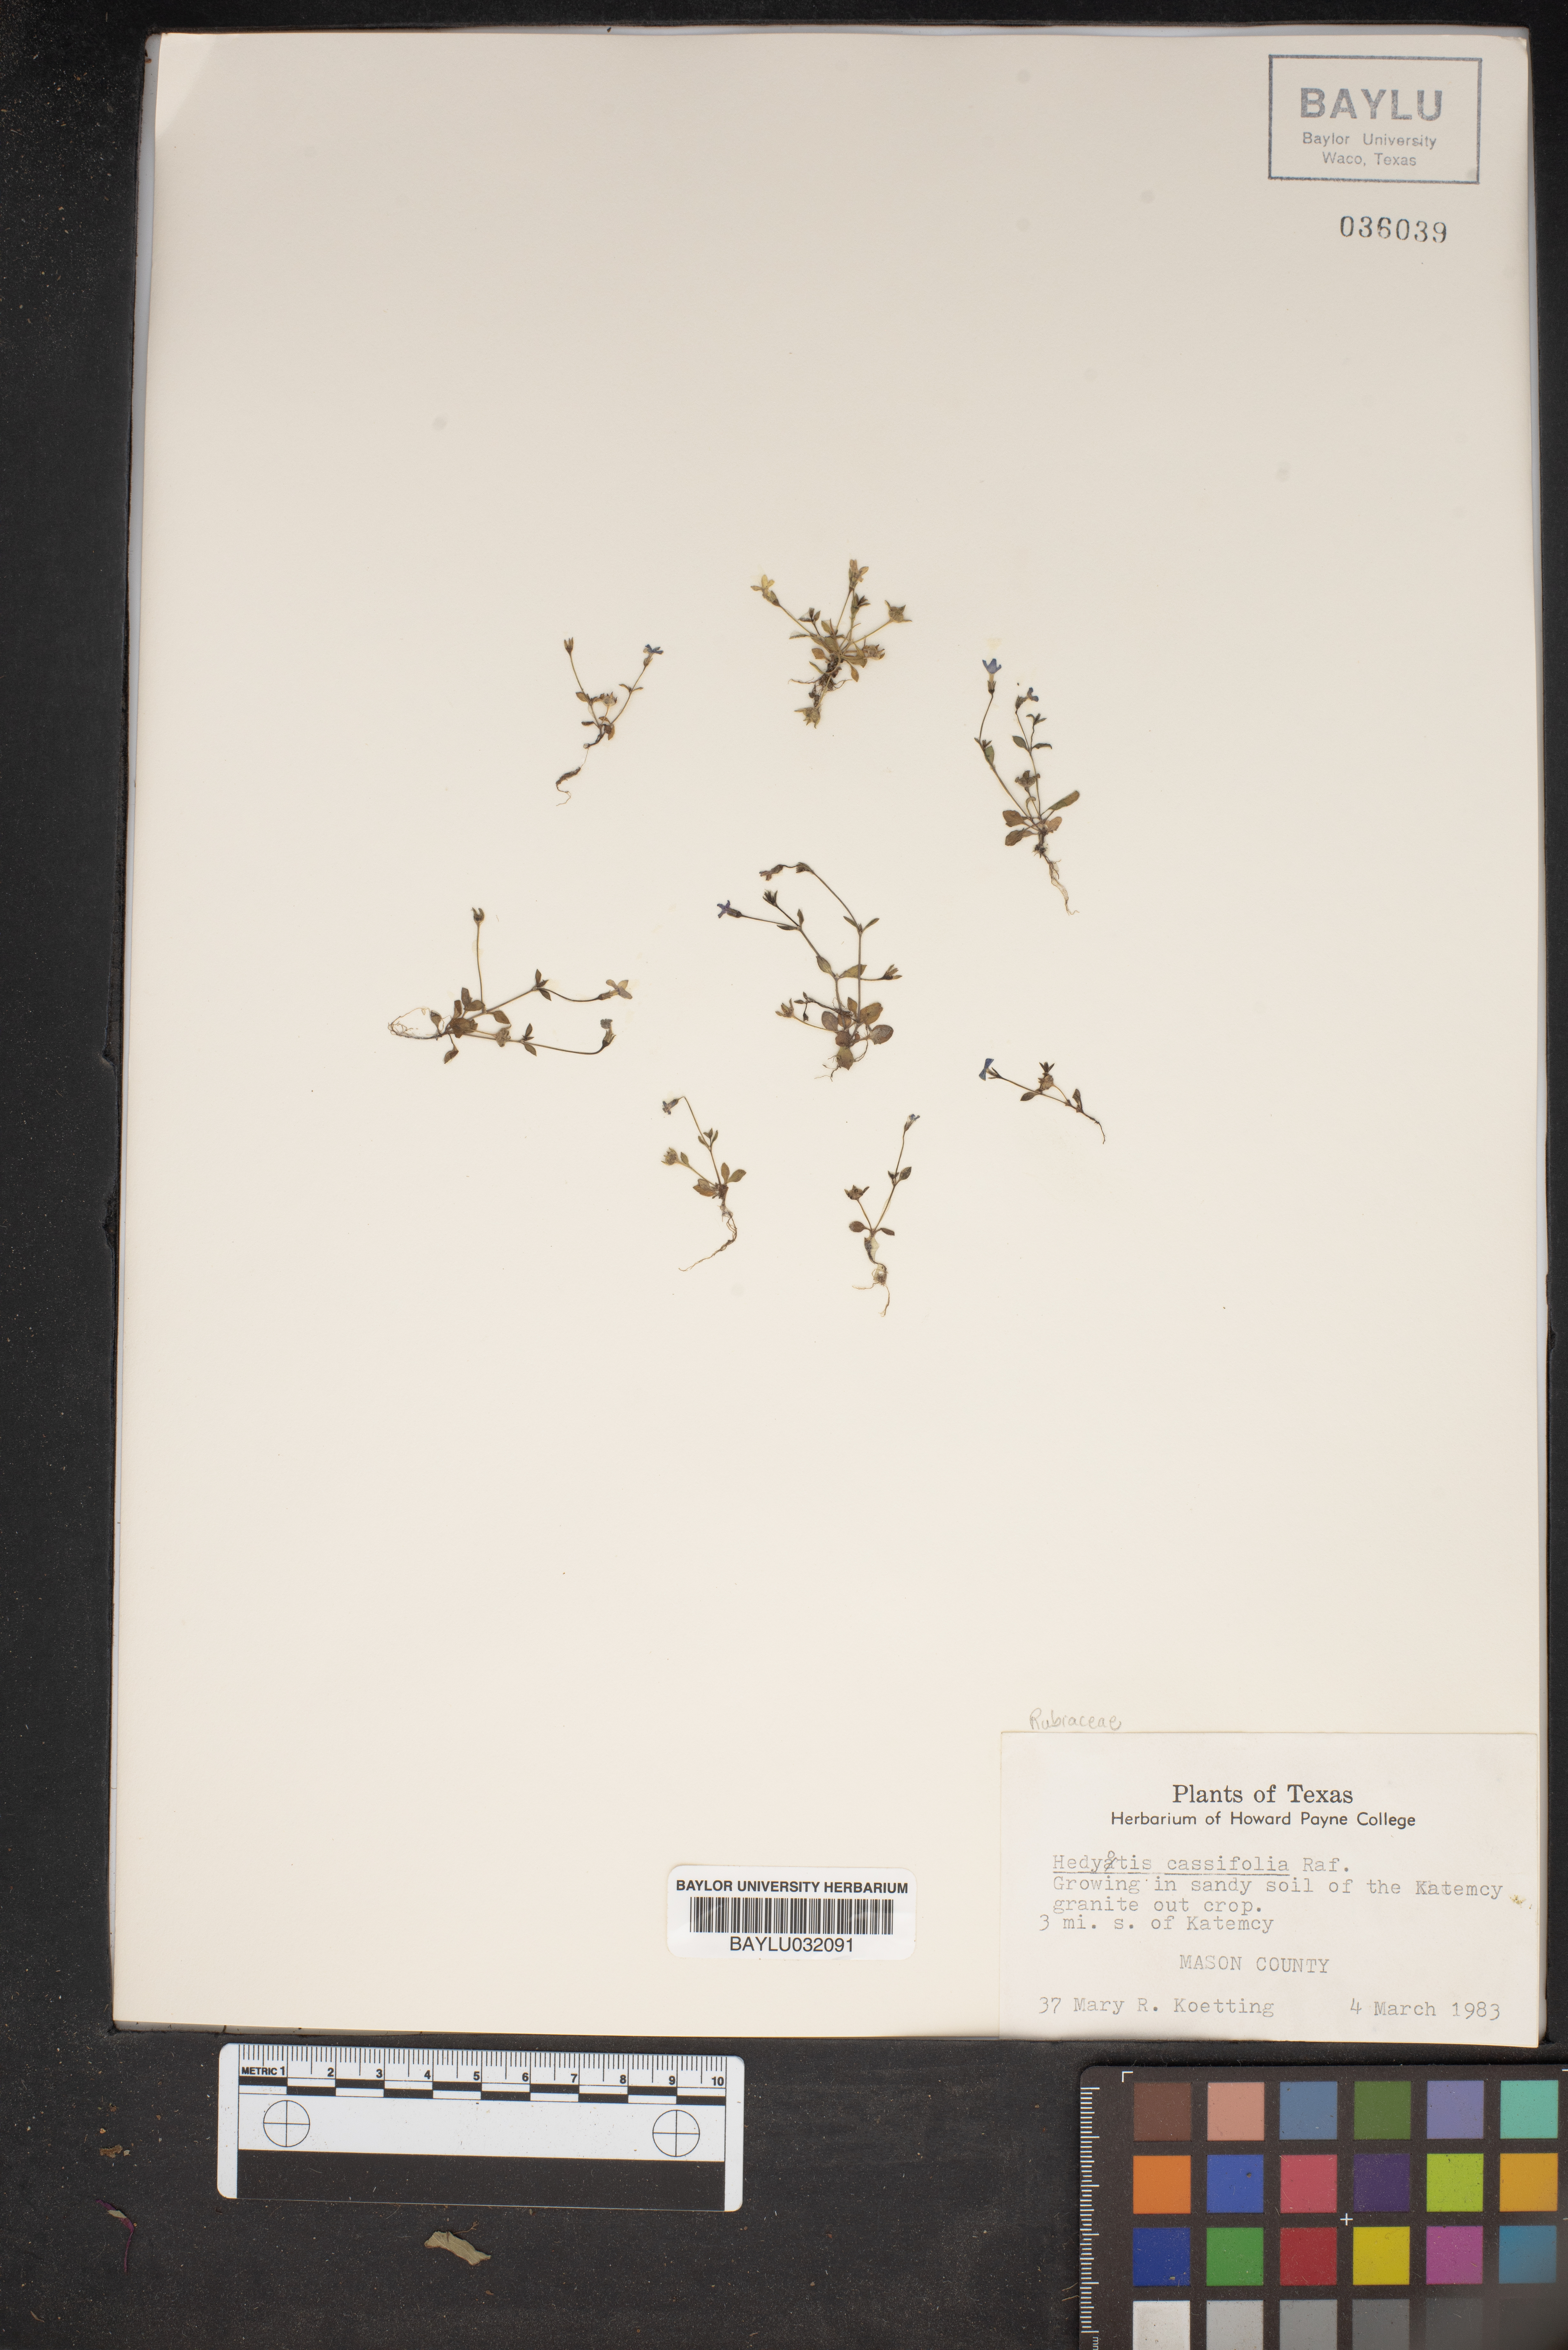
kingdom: Plantae
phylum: Tracheophyta
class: Magnoliopsida
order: Gentianales
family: Rubiaceae
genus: Houstonia
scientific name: Houstonia pusilla
